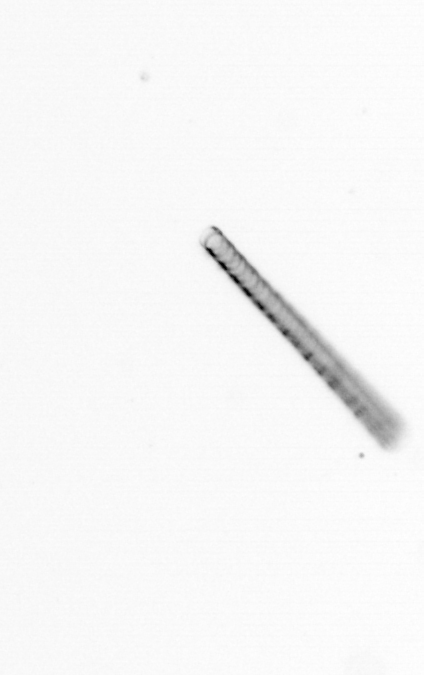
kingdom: Chromista
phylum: Ochrophyta
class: Bacillariophyceae
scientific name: Bacillariophyceae
